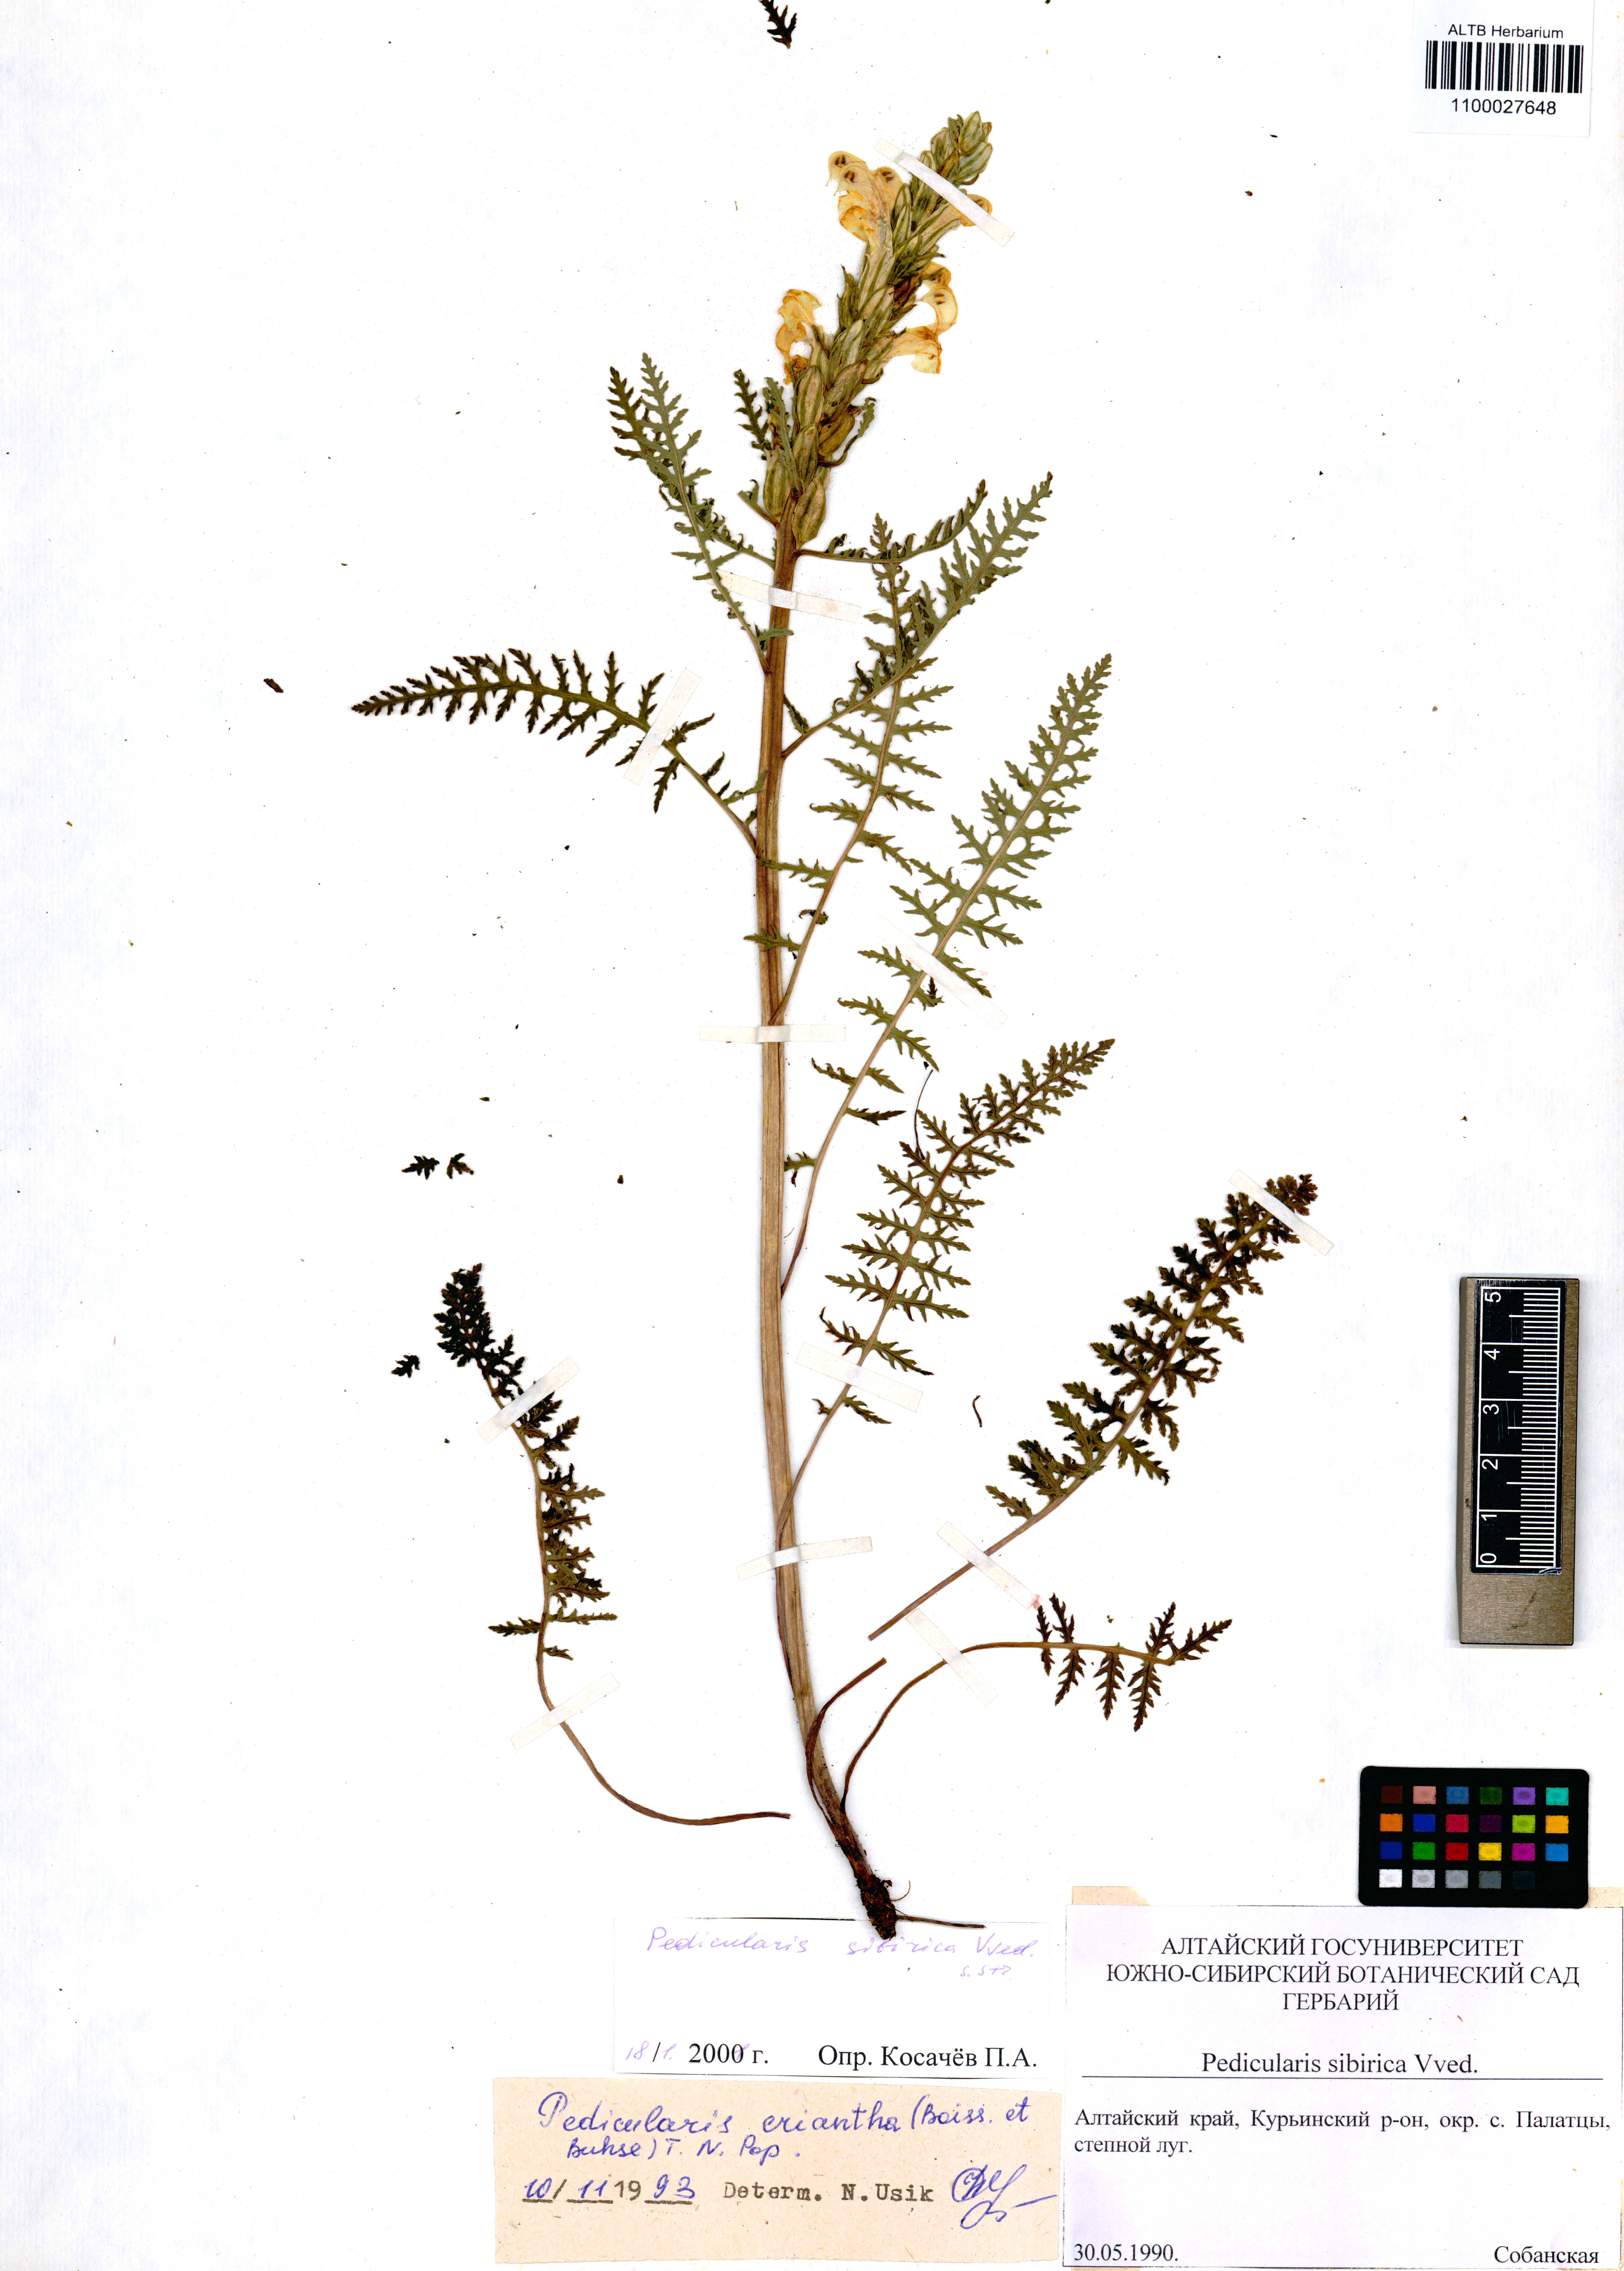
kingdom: Plantae
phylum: Tracheophyta
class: Magnoliopsida
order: Lamiales
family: Orobanchaceae
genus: Pedicularis
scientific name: Pedicularis sibirica
